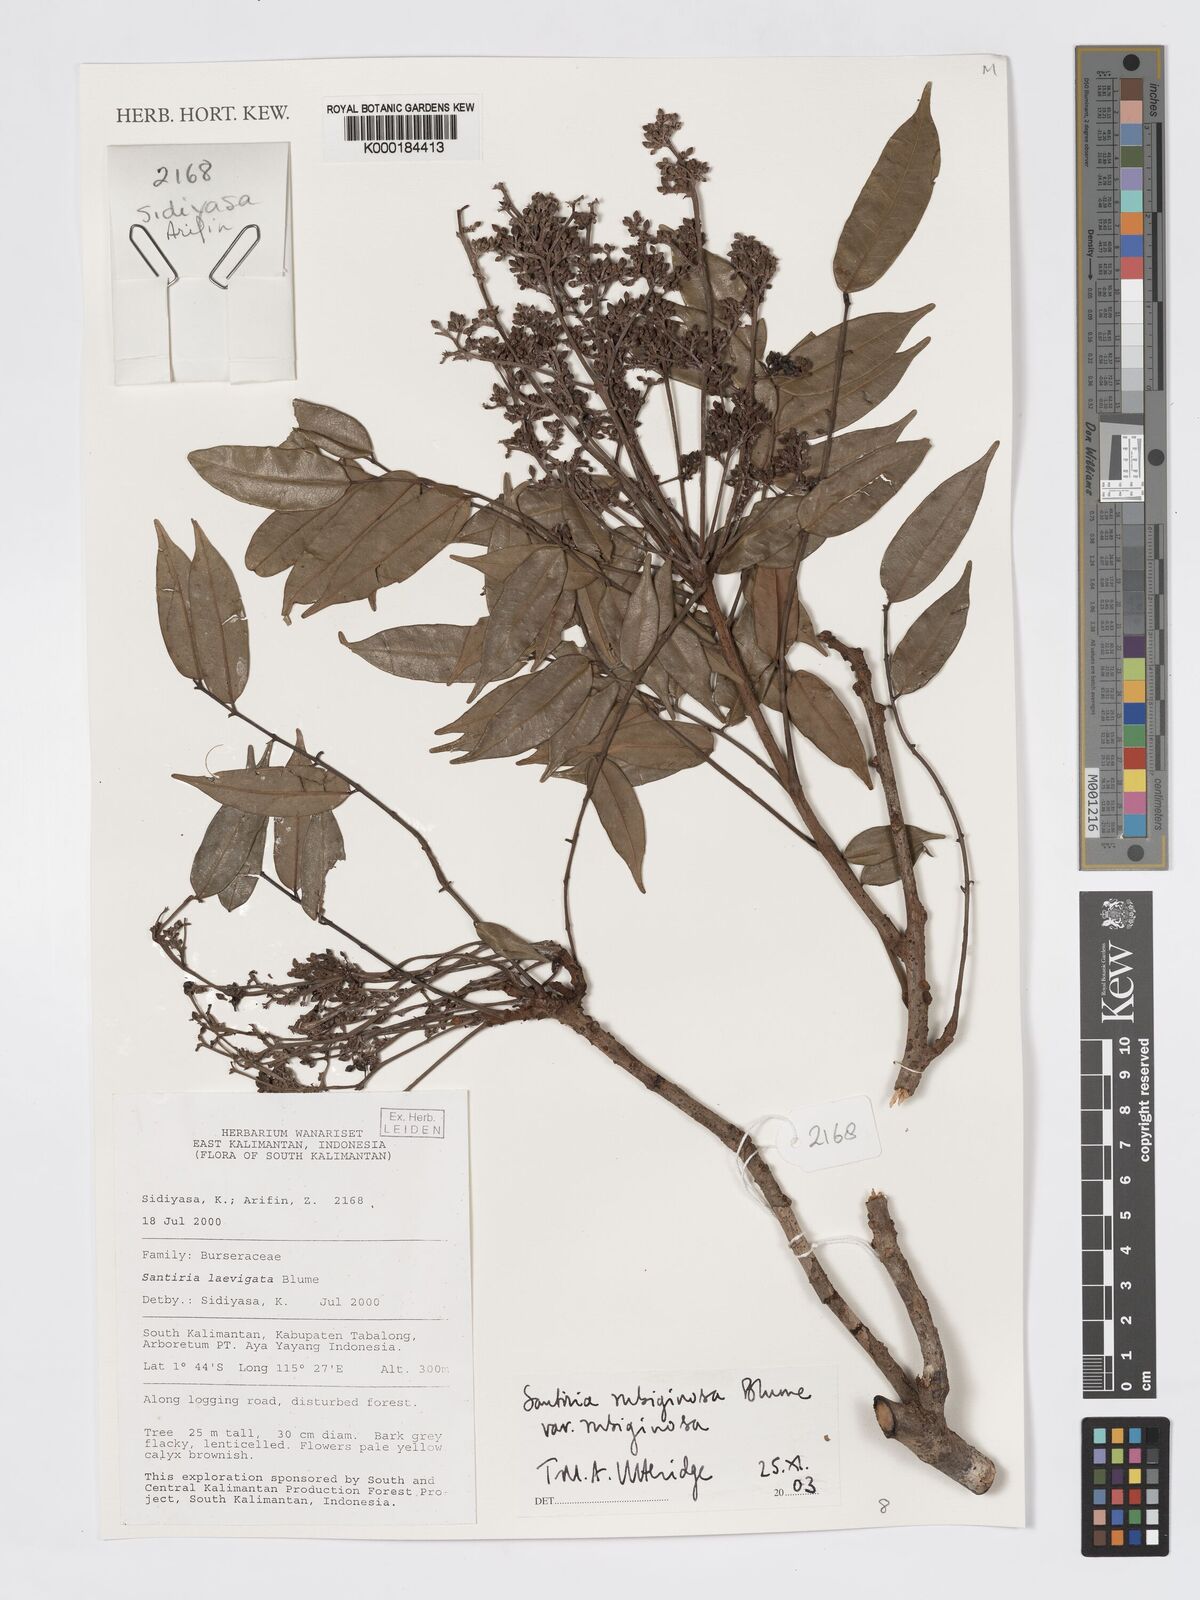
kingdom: Plantae
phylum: Tracheophyta
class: Magnoliopsida
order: Sapindales
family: Burseraceae
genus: Santiria
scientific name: Santiria rubiginosa
